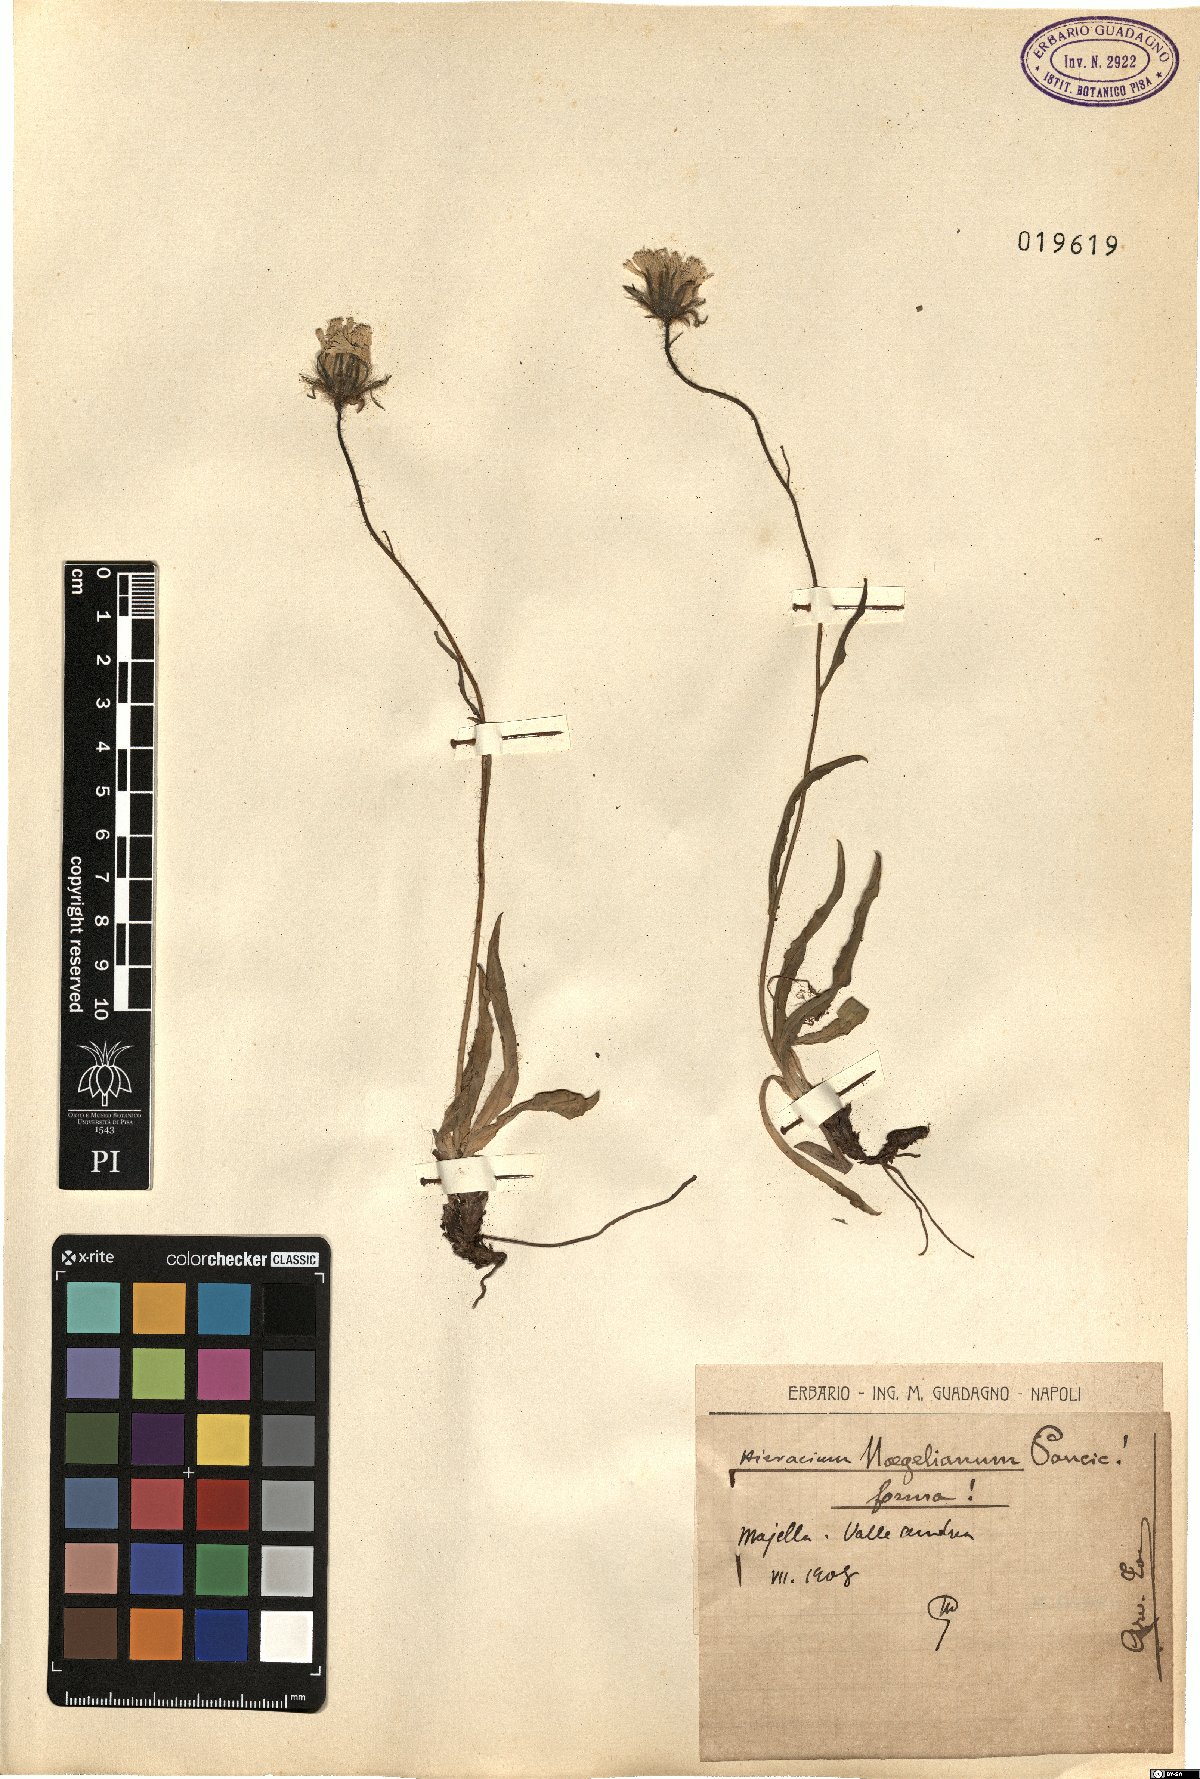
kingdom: Plantae
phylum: Tracheophyta
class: Magnoliopsida
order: Asterales
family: Asteraceae
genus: Hieracium
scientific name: Hieracium naegelianum
